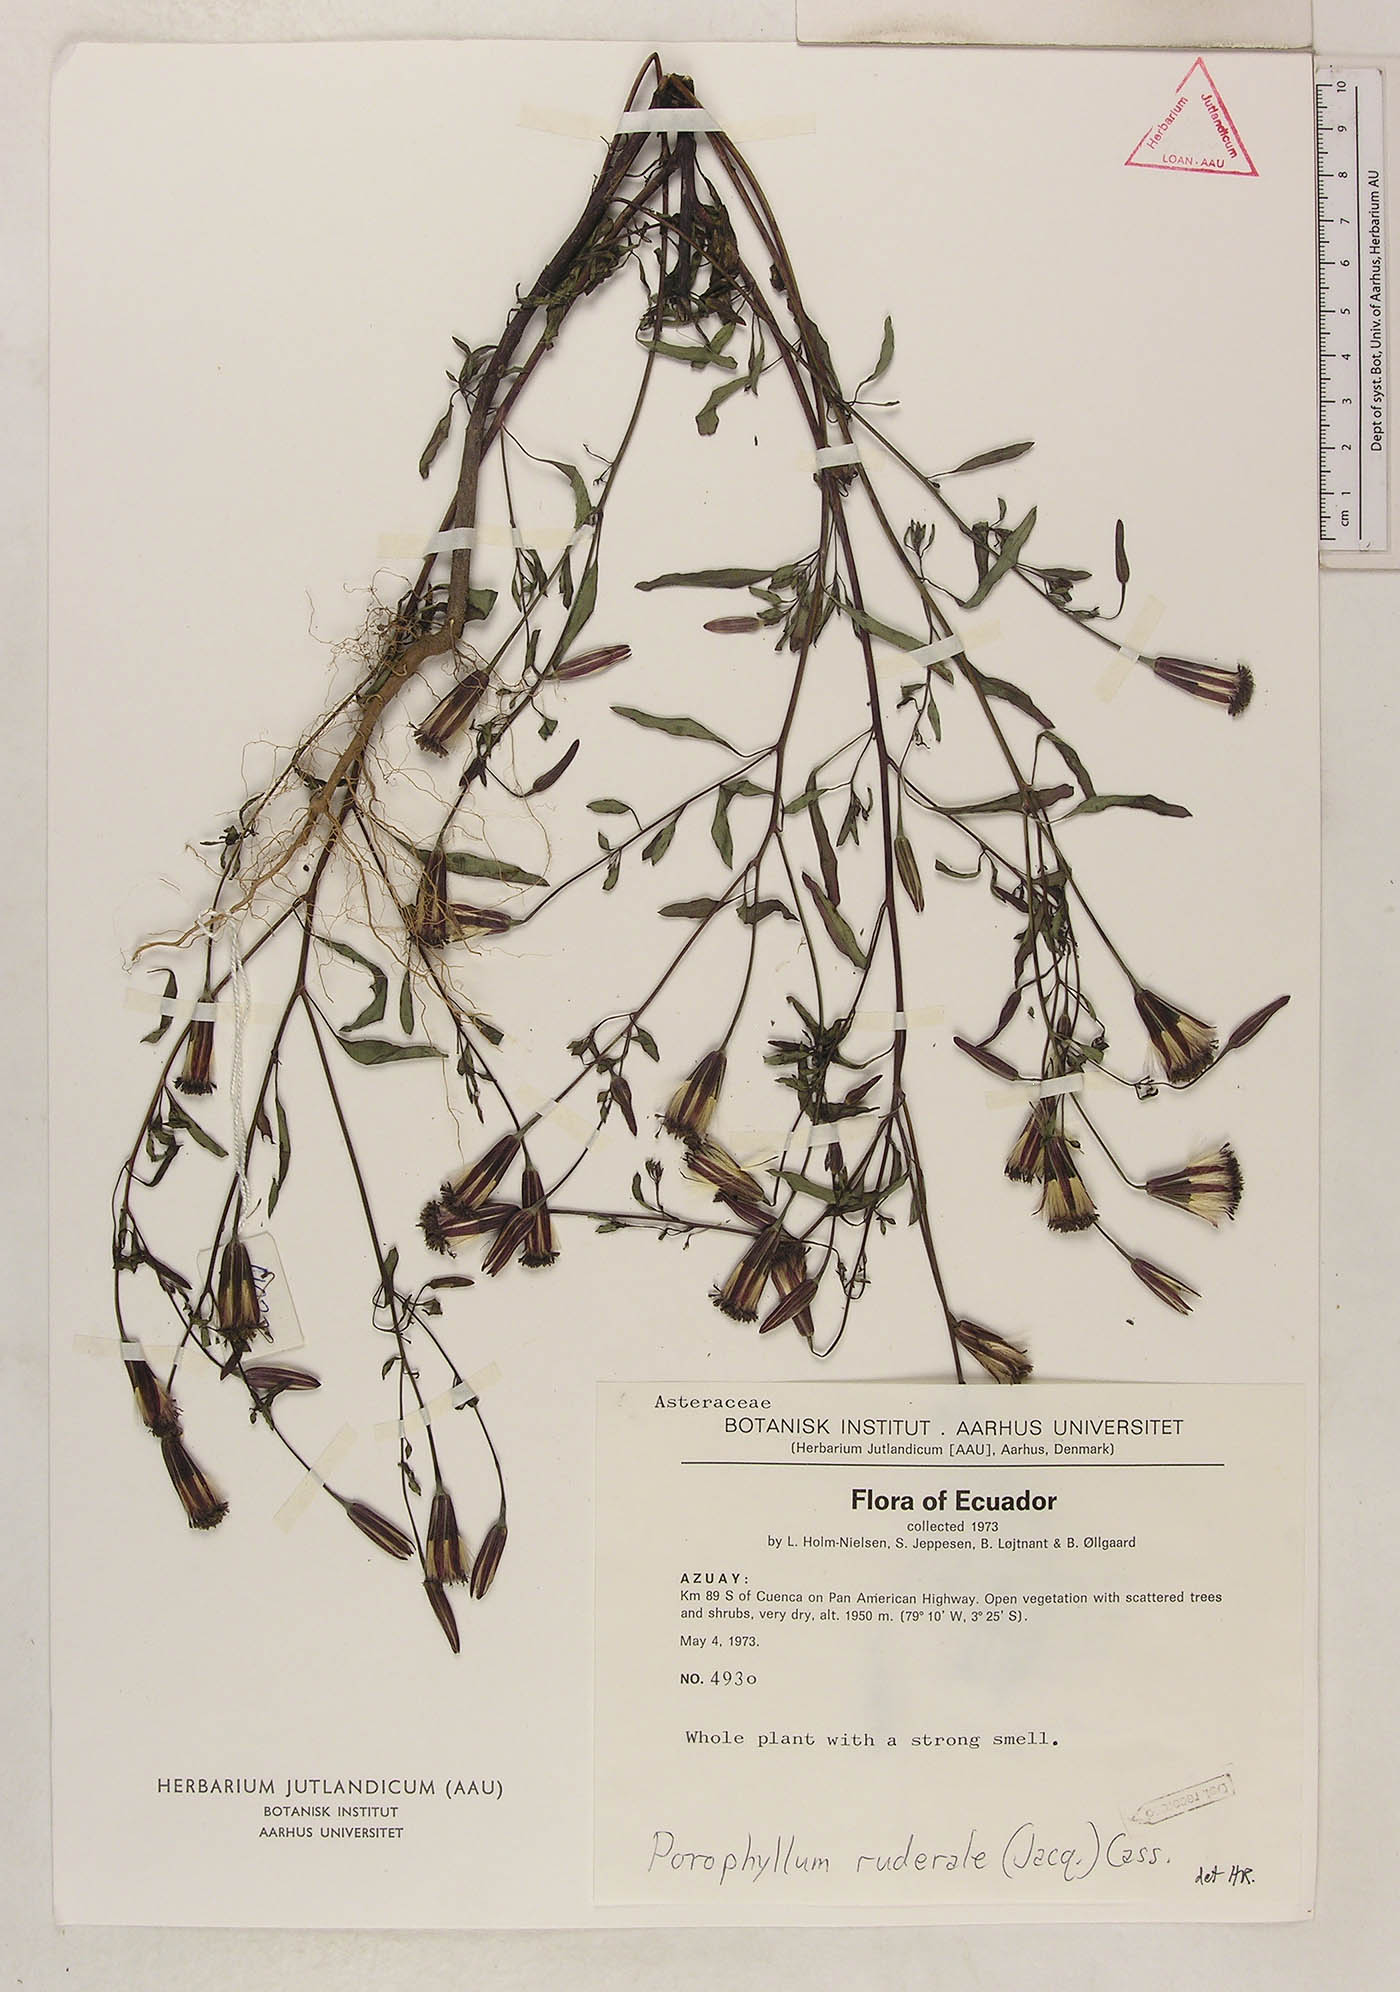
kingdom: Plantae
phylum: Tracheophyta
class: Magnoliopsida
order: Asterales
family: Asteraceae
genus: Porophyllum
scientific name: Porophyllum ruderale
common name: Yerba porosa
